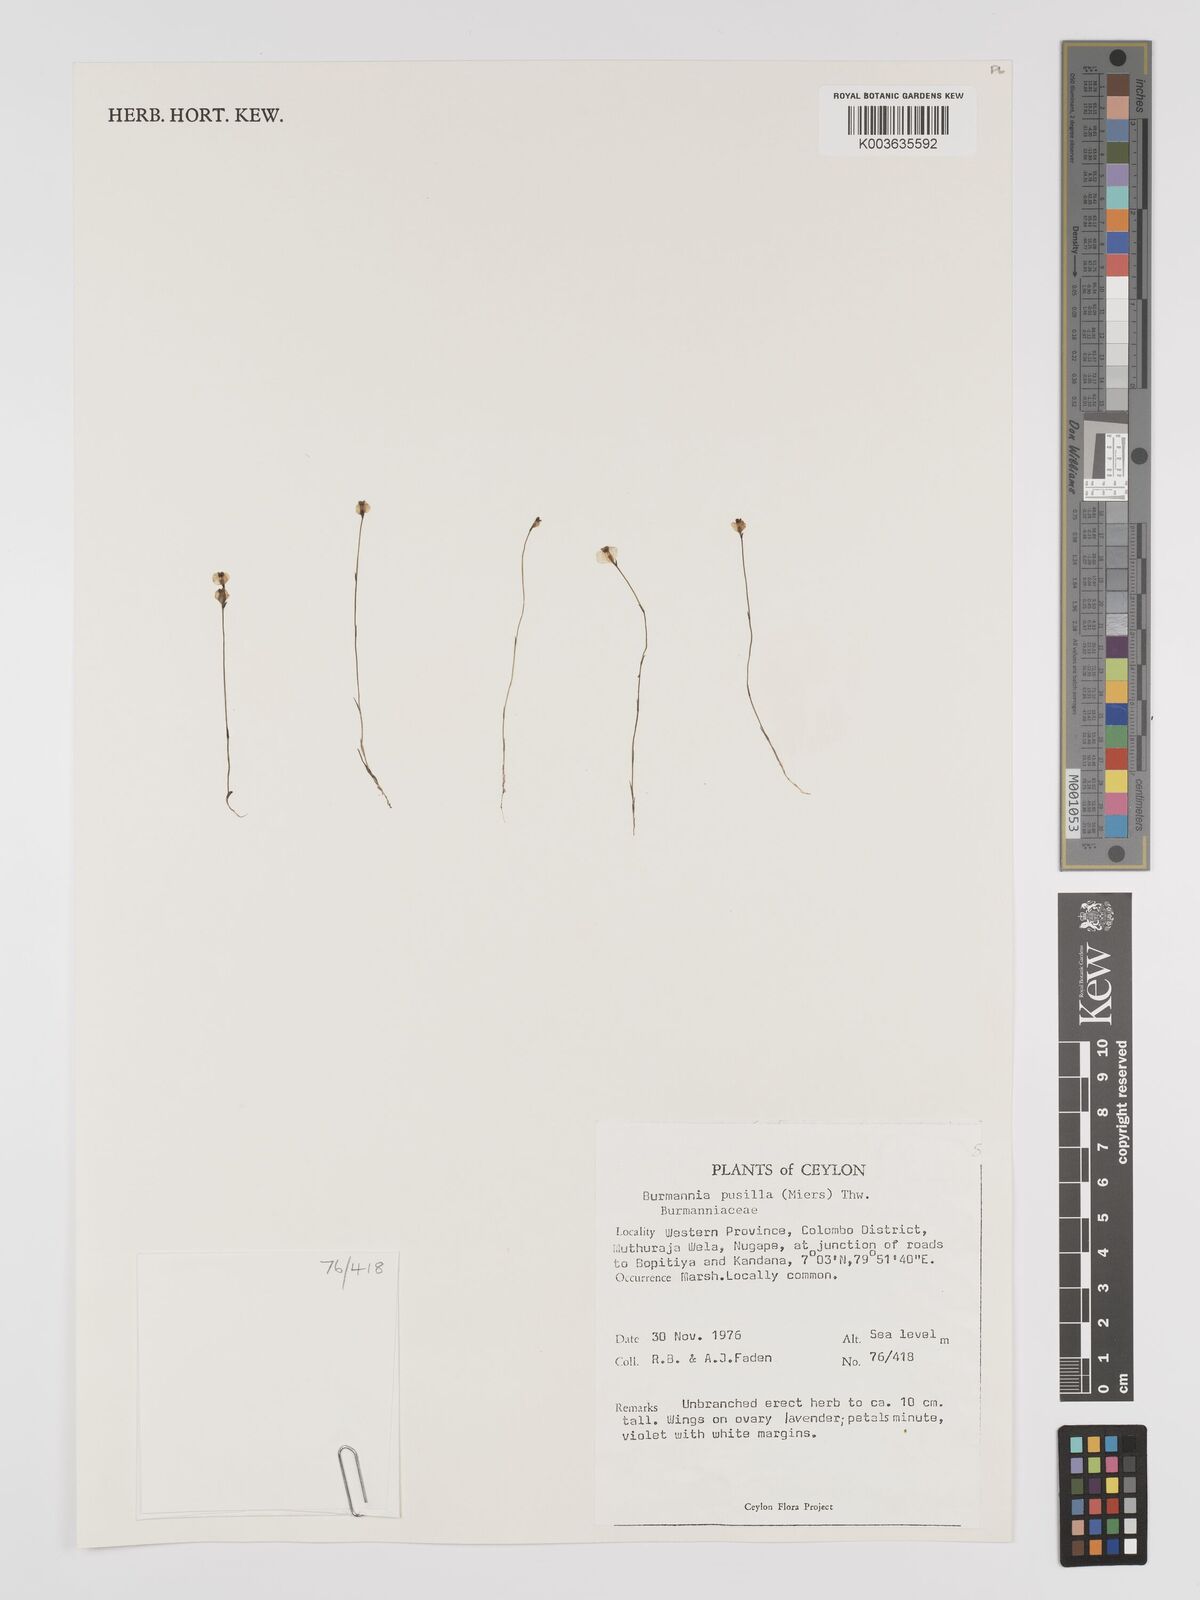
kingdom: Plantae
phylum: Tracheophyta
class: Liliopsida
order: Dioscoreales
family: Burmanniaceae
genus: Burmannia
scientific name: Burmannia pusilla
